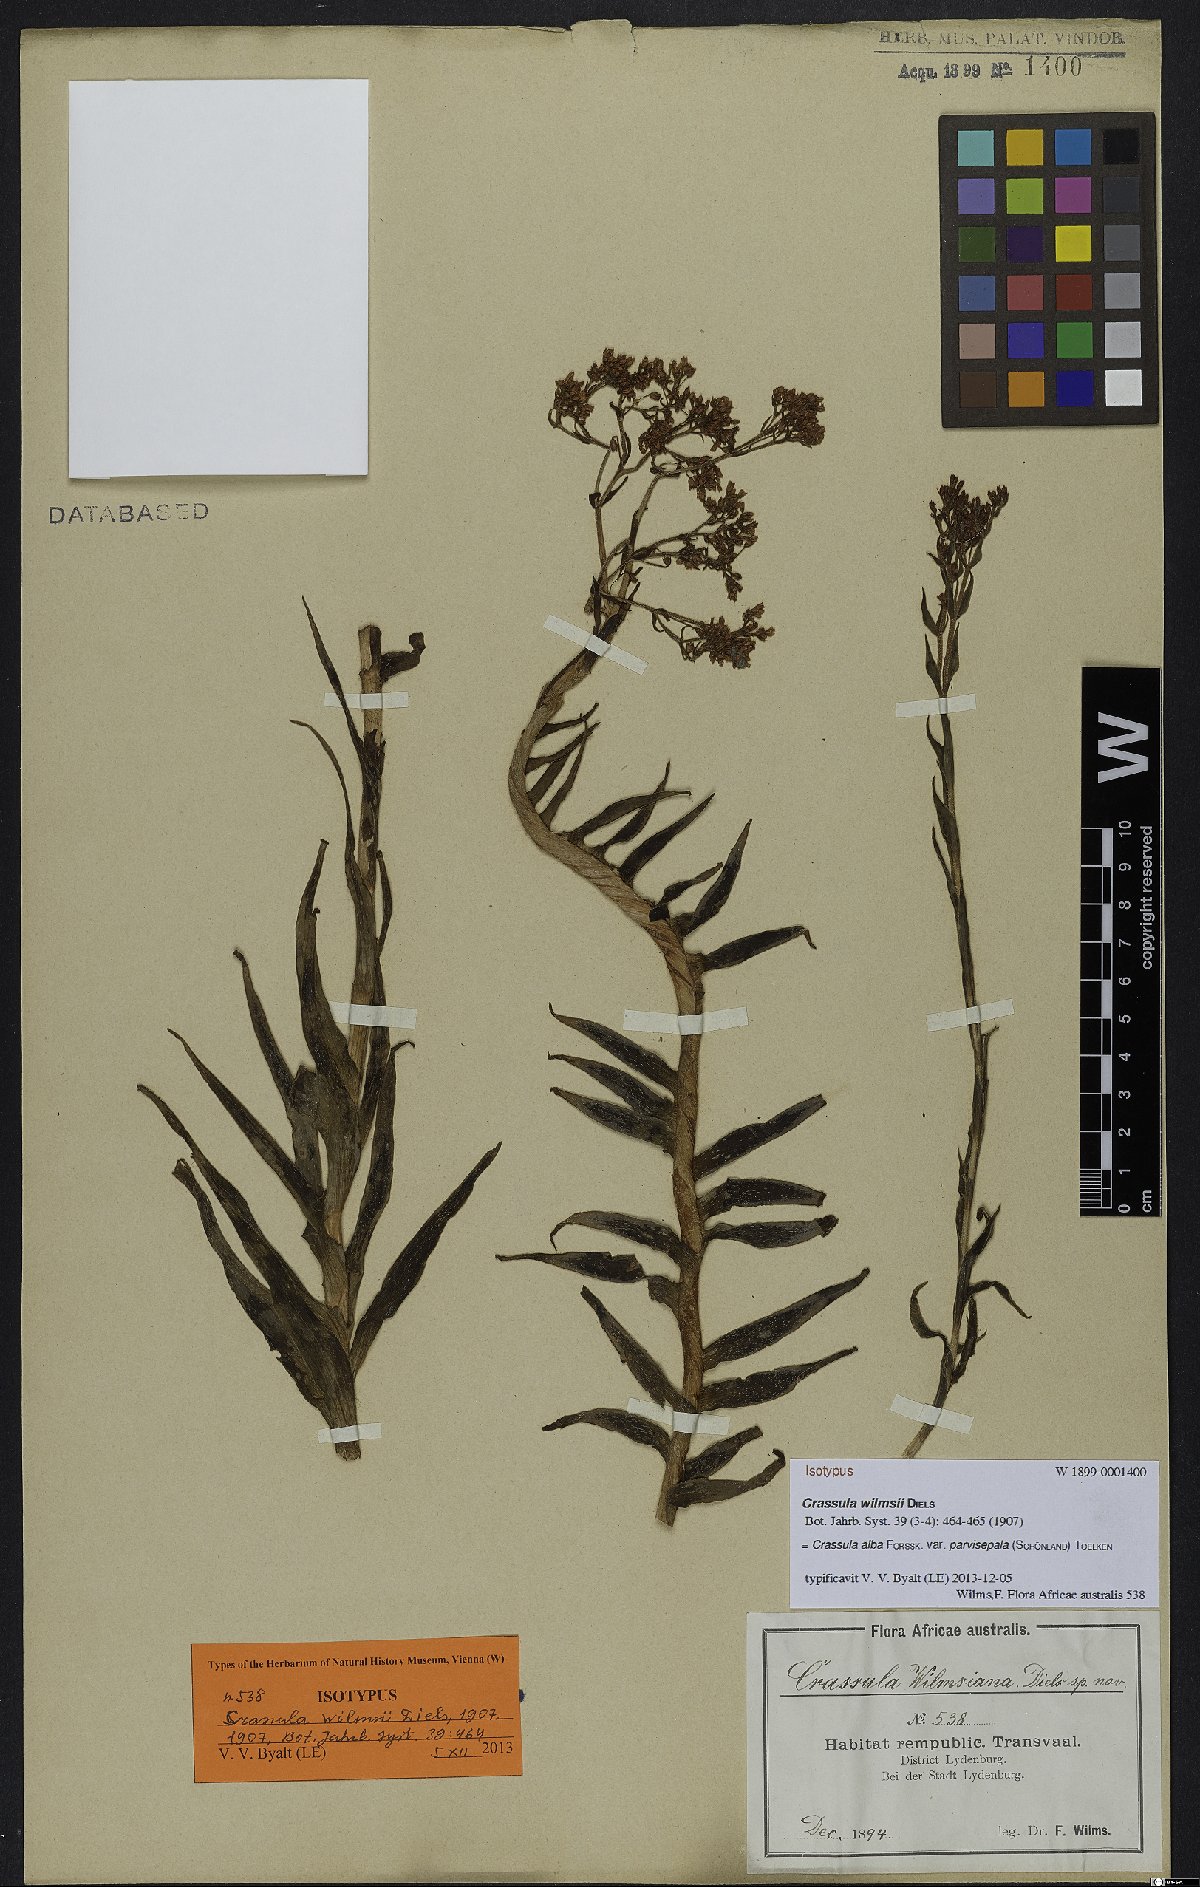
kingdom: Plantae
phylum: Tracheophyta
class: Magnoliopsida
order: Saxifragales
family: Crassulaceae
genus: Crassula
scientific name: Crassula alba
